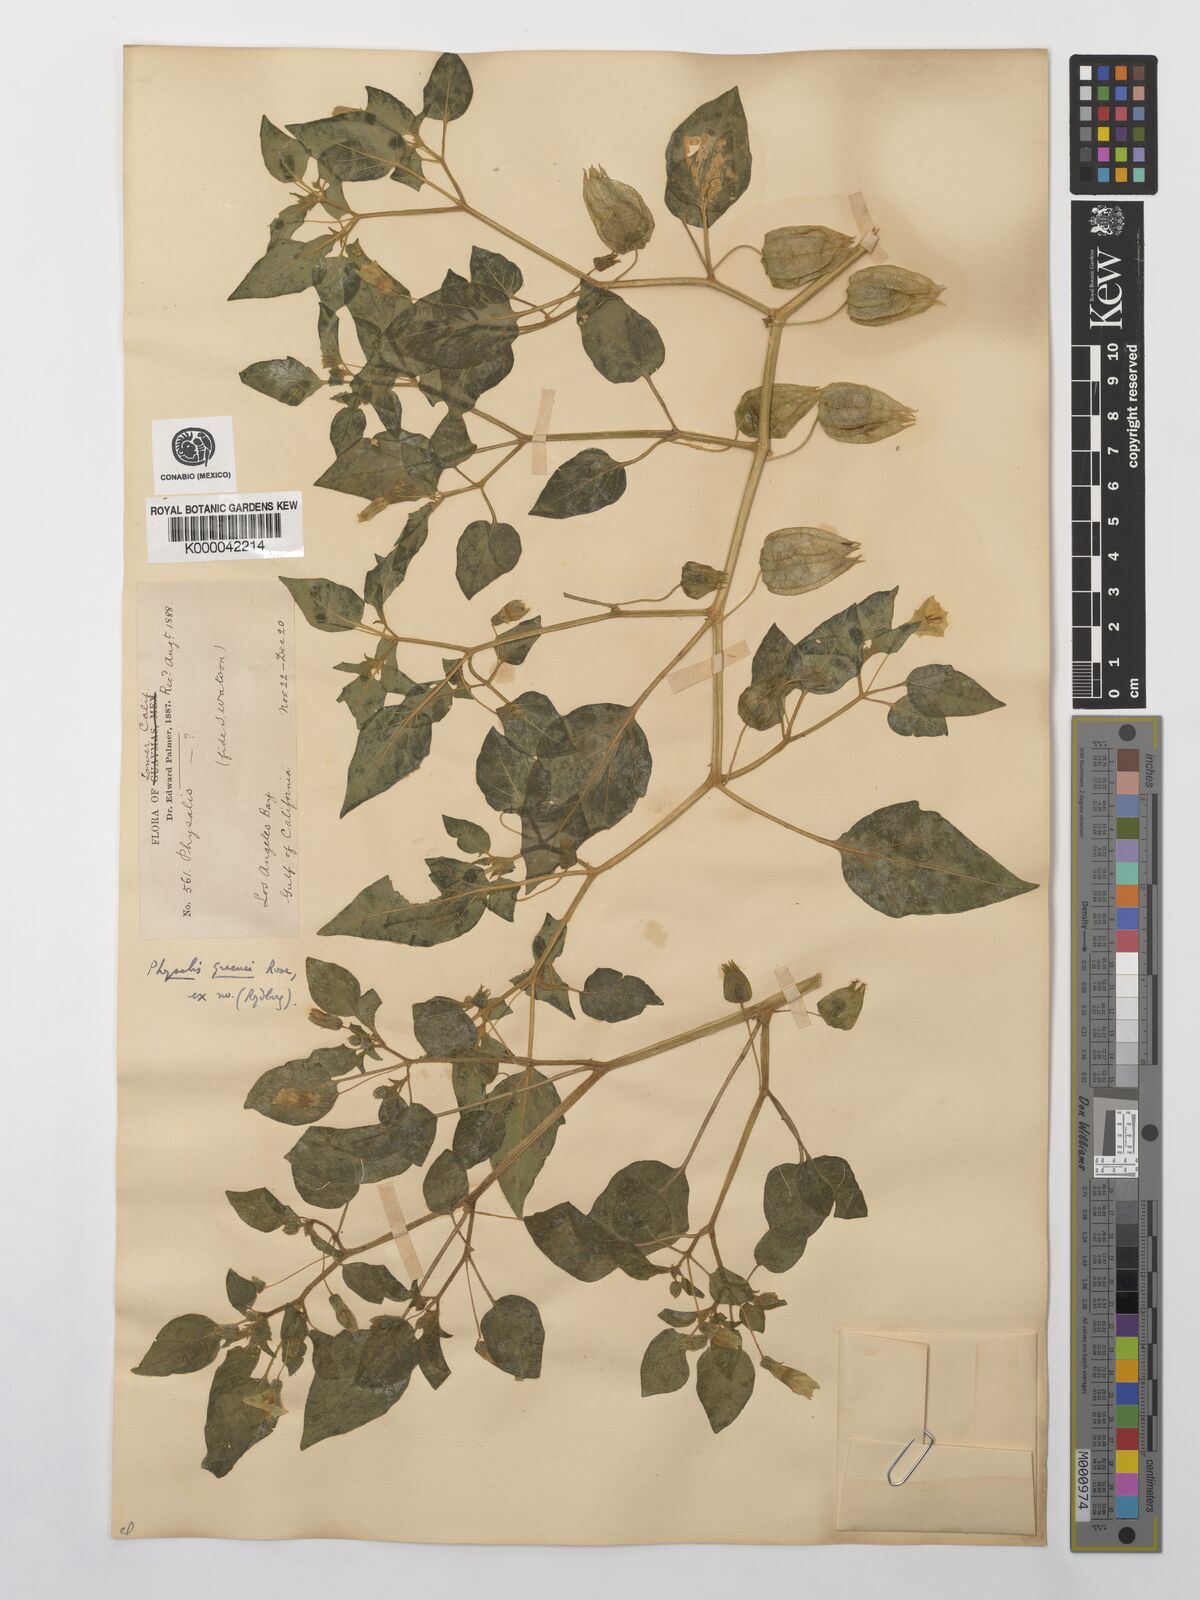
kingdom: Plantae
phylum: Tracheophyta
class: Magnoliopsida
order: Solanales
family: Solanaceae
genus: Physalis
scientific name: Physalis crassifolia
